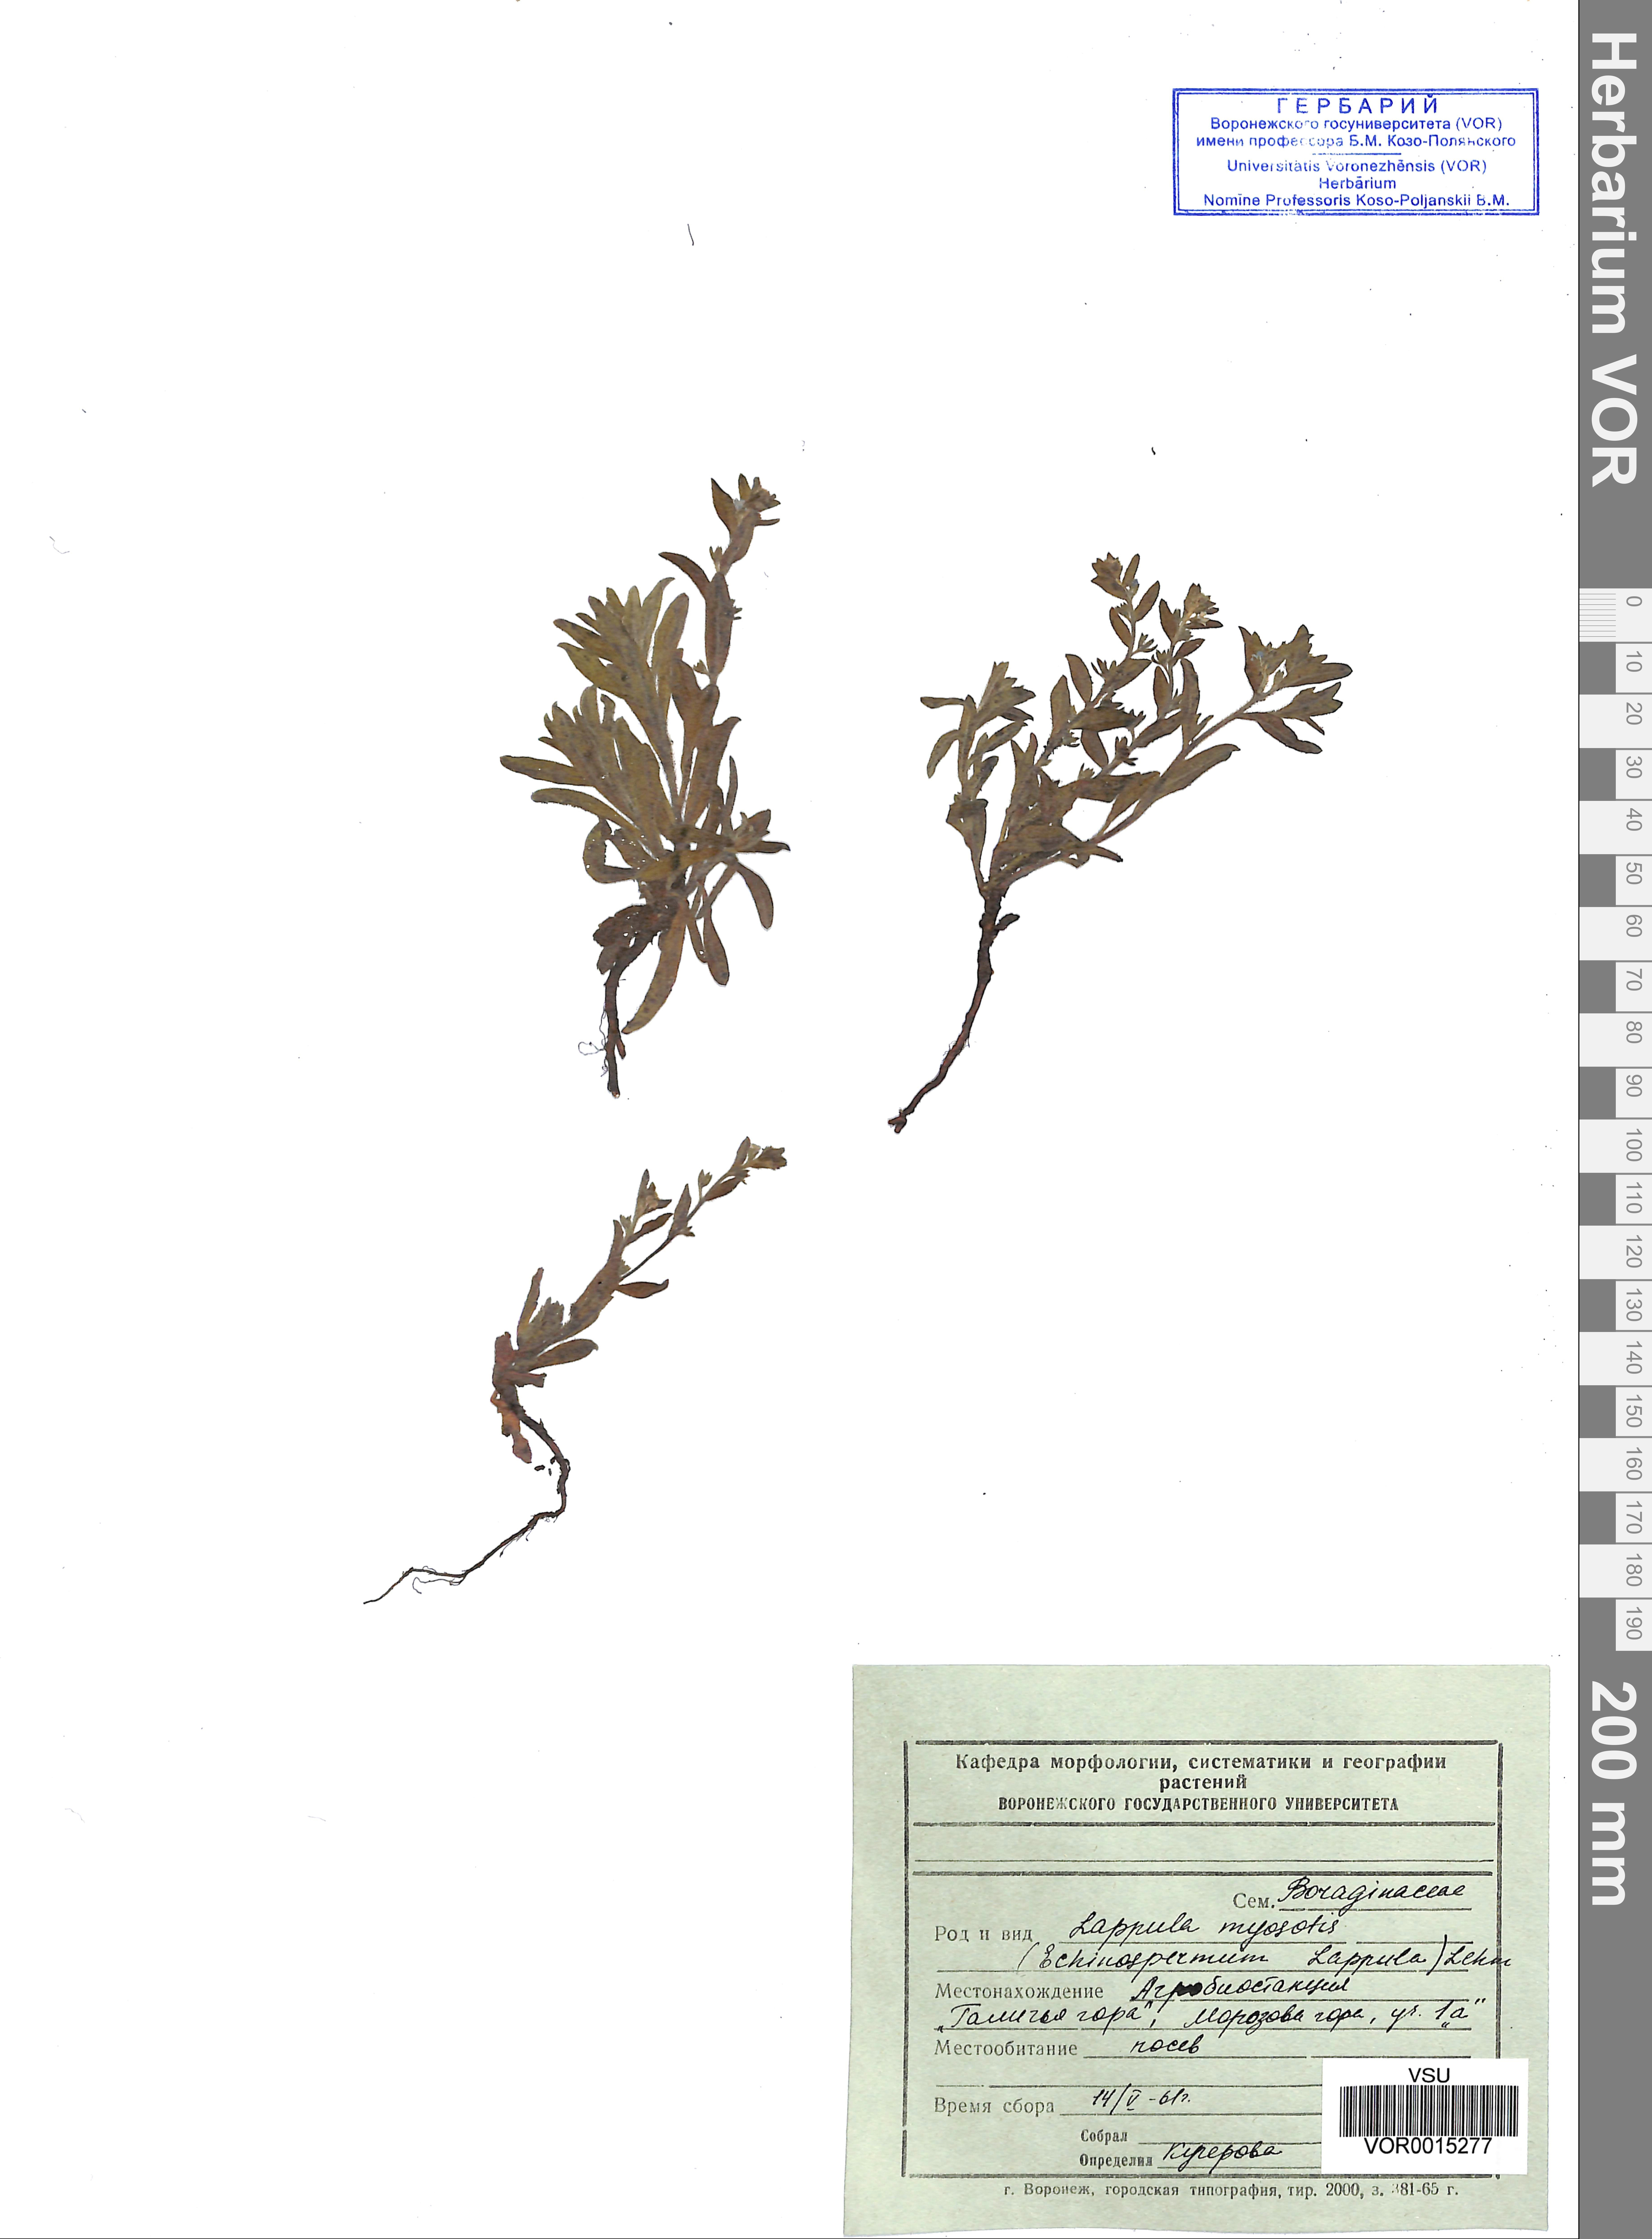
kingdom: Plantae
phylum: Tracheophyta
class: Magnoliopsida
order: Boraginales
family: Boraginaceae
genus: Lappula
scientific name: Lappula squarrosa
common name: European stickseed
